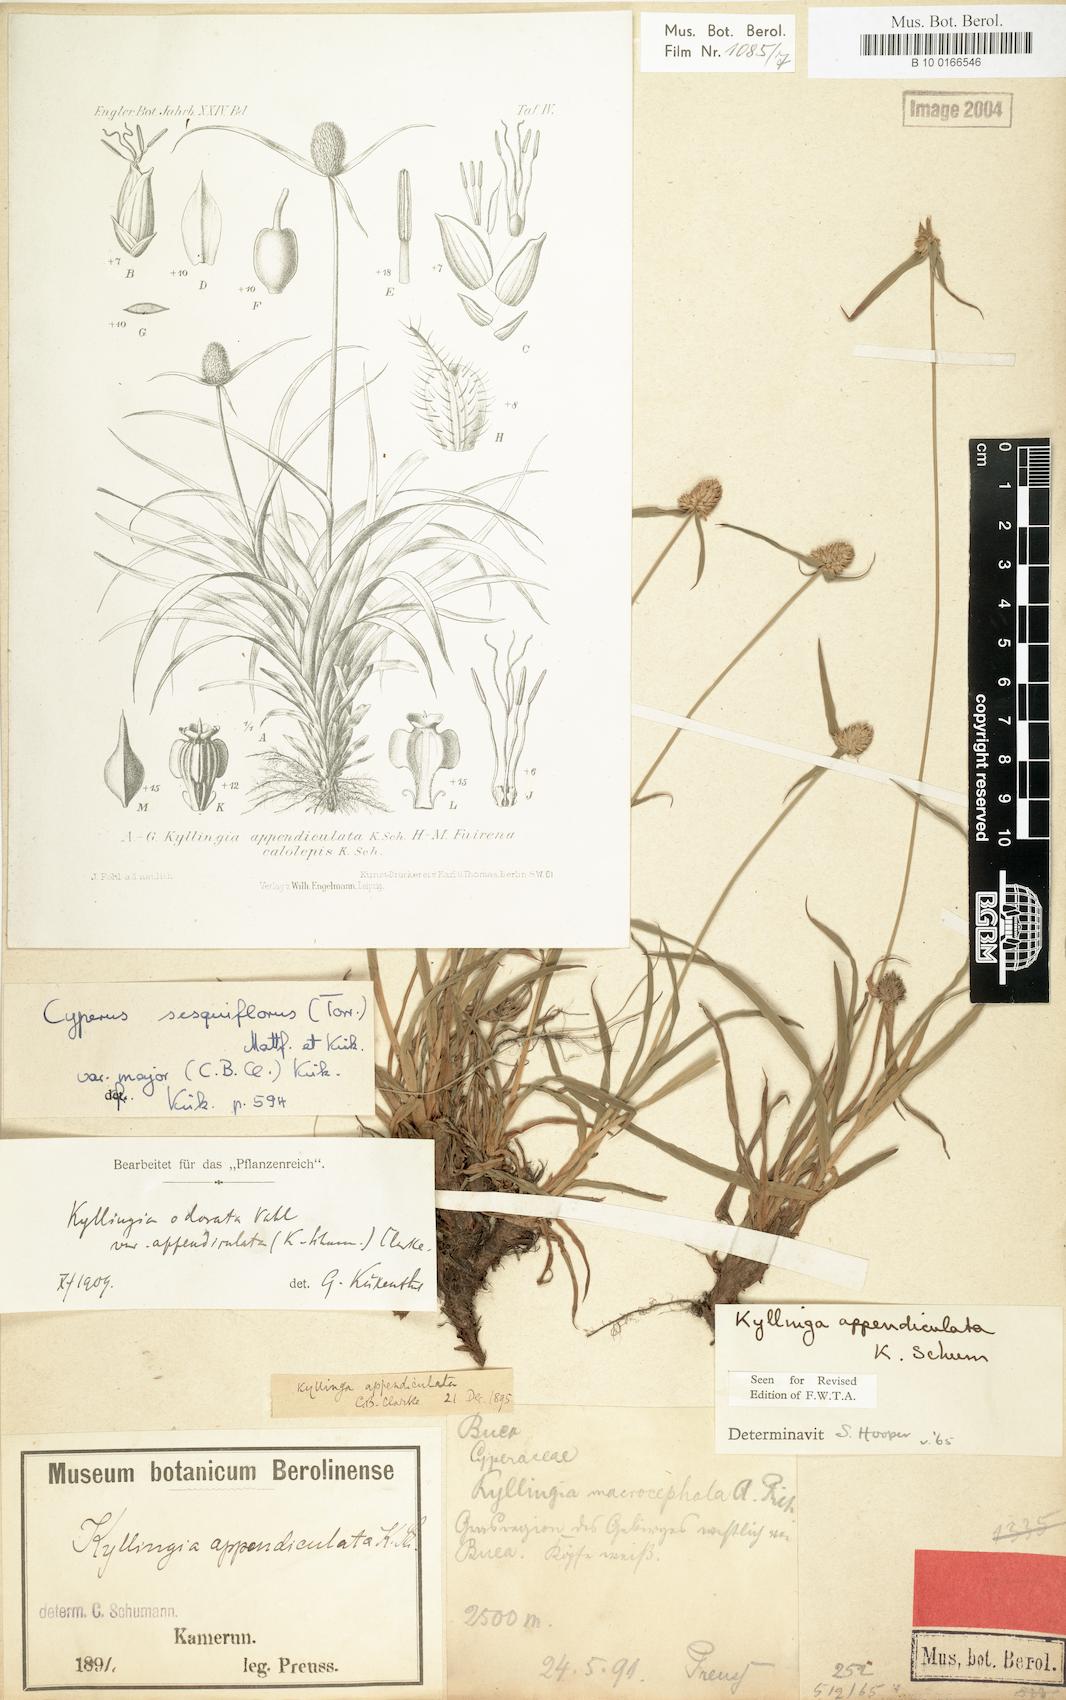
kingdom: Plantae
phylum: Tracheophyta
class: Liliopsida
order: Poales
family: Cyperaceae
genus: Cyperus
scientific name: Cyperus sesquiflorus
